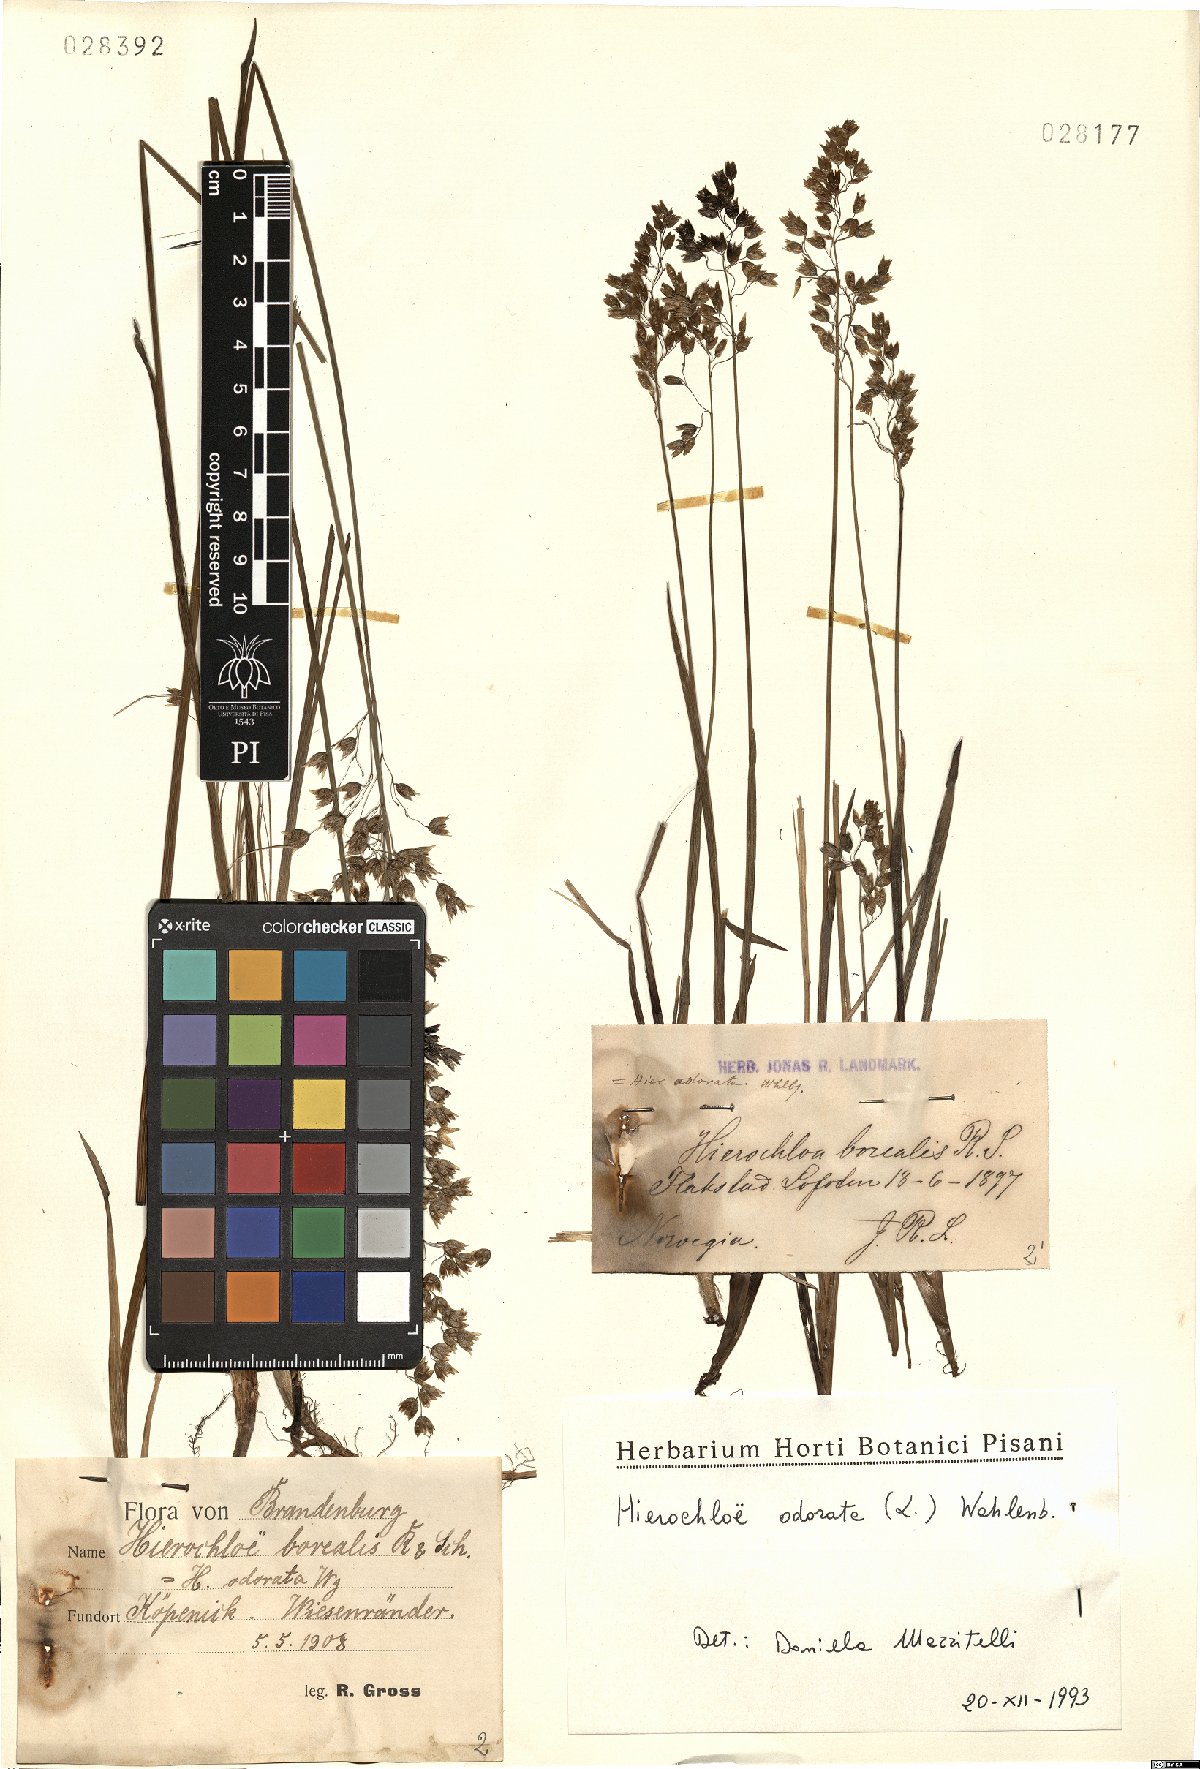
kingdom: Plantae
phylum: Tracheophyta
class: Liliopsida
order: Poales
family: Poaceae
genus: Anthoxanthum
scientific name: Anthoxanthum nitens
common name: Holy grass
